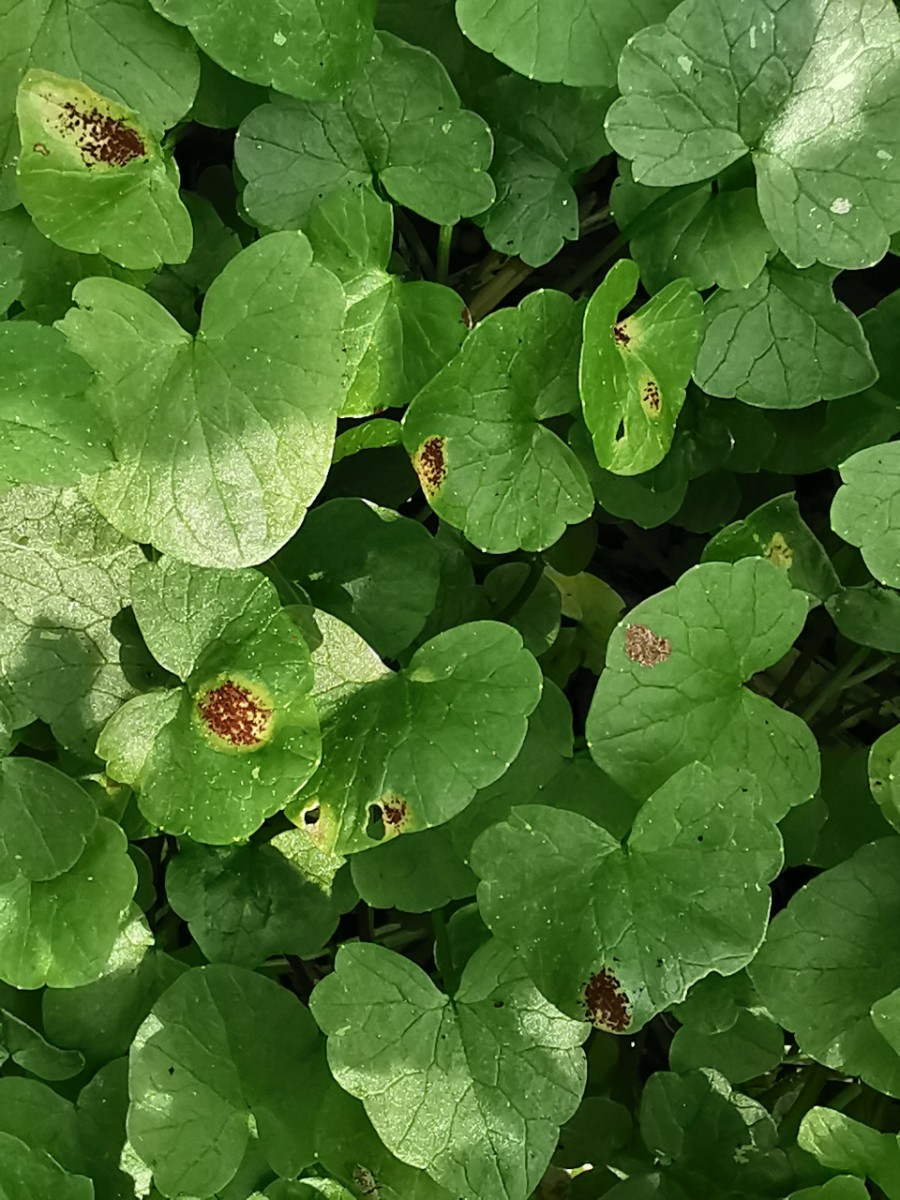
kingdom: Fungi
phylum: Basidiomycota
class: Pucciniomycetes
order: Pucciniales
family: Pucciniaceae
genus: Uromyces
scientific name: Uromyces ficariae
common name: vorterod-encellerust
